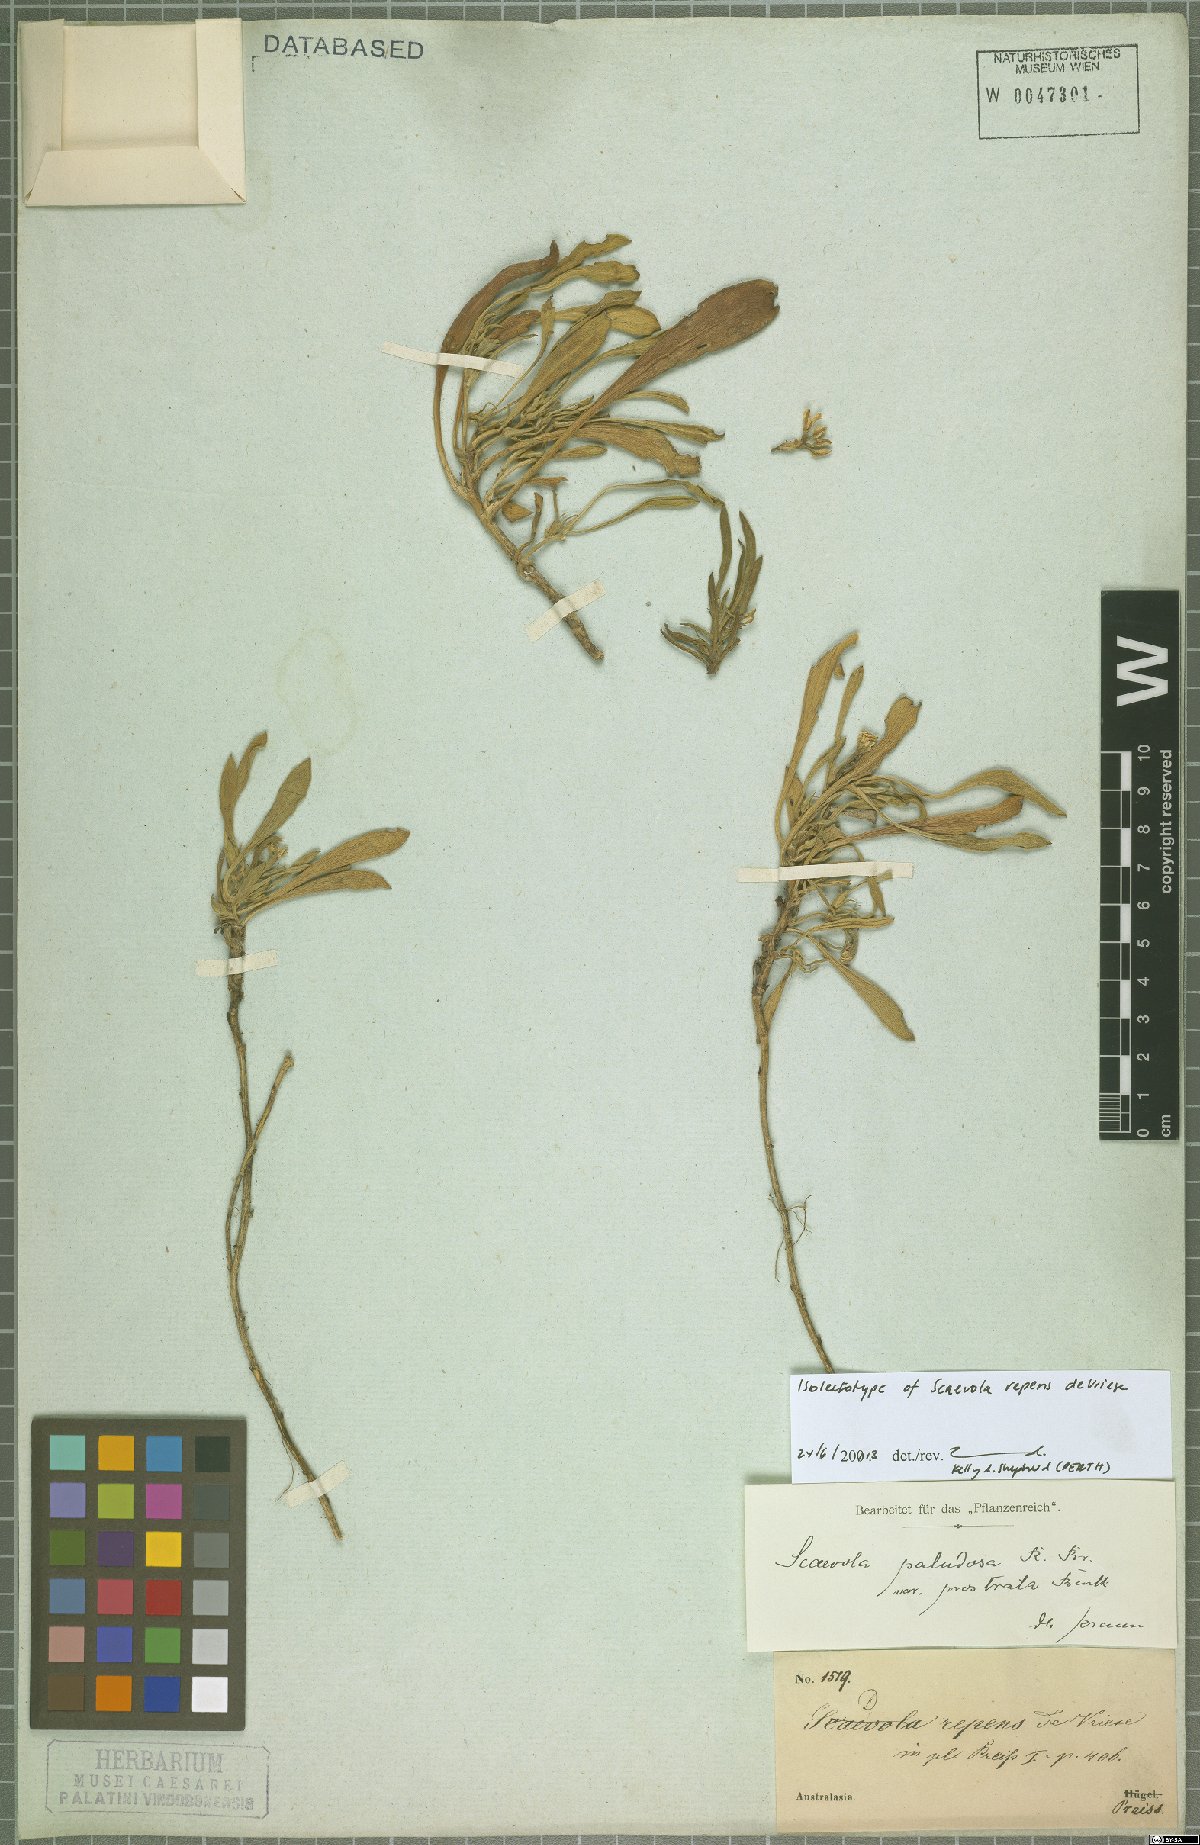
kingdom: Plantae
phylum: Tracheophyta
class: Magnoliopsida
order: Asterales
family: Goodeniaceae
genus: Scaevola
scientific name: Scaevola repens
